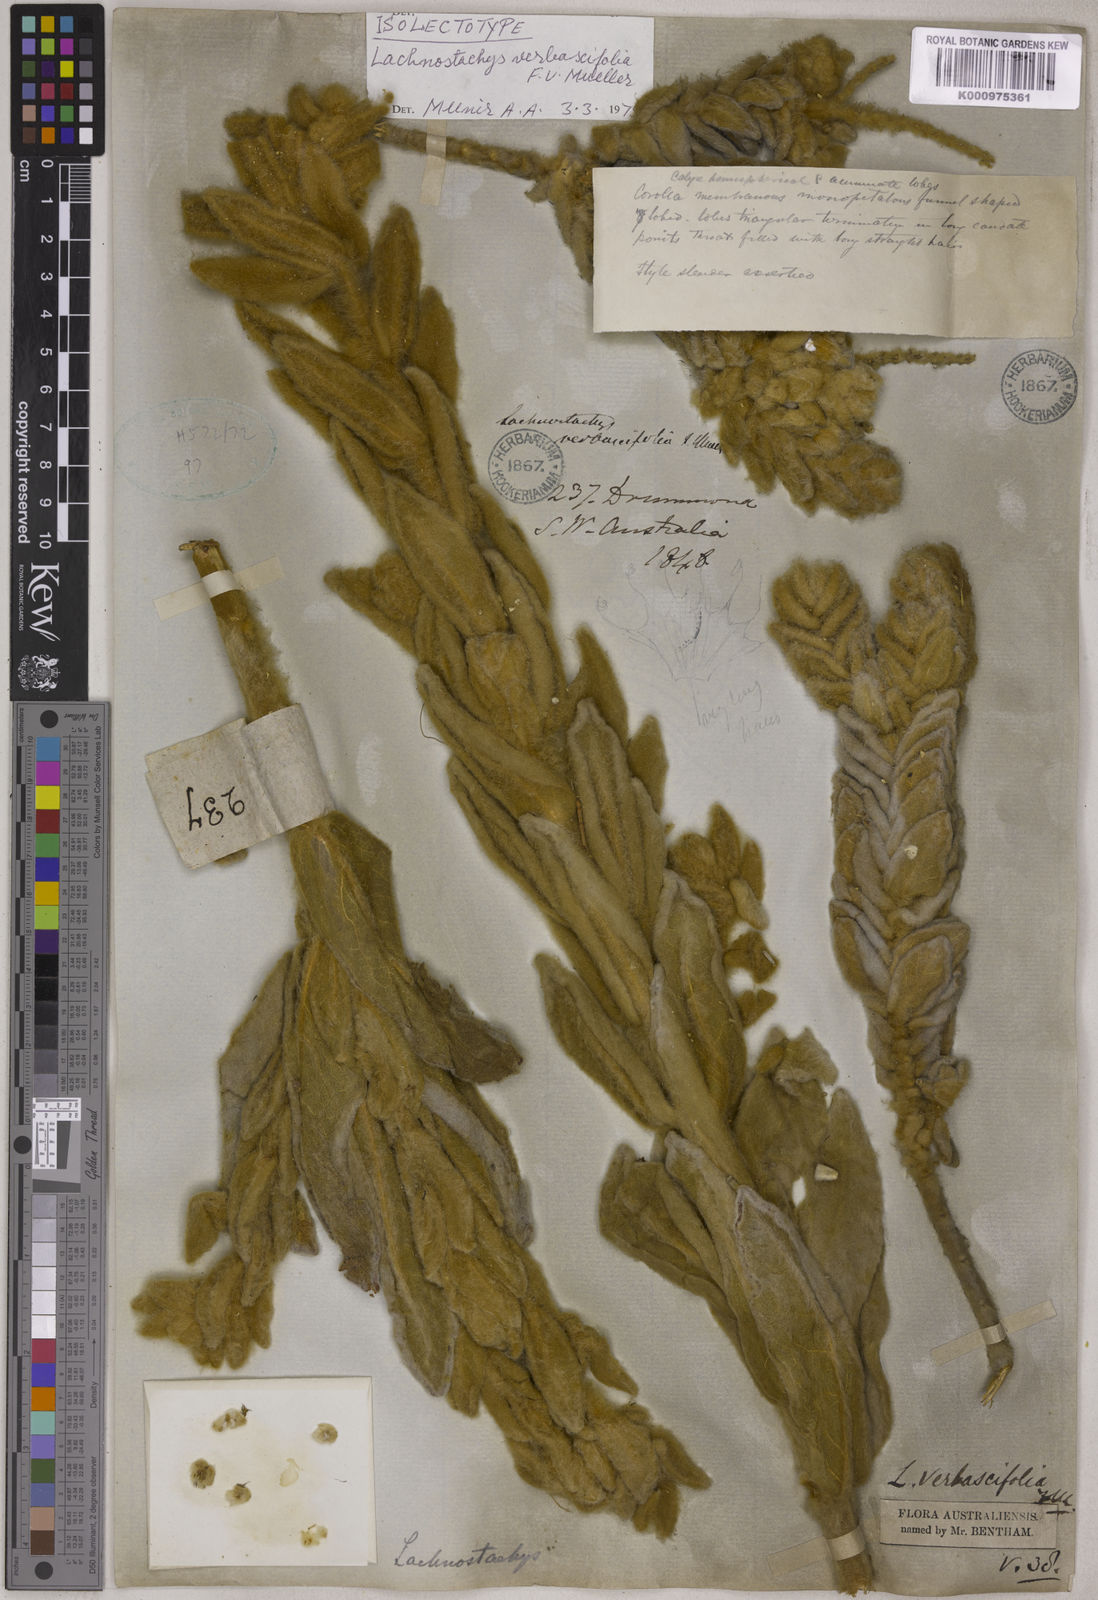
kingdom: Plantae
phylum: Tracheophyta
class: Magnoliopsida
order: Lamiales
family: Lamiaceae
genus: Lachnostachys
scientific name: Lachnostachys verbascifolia
